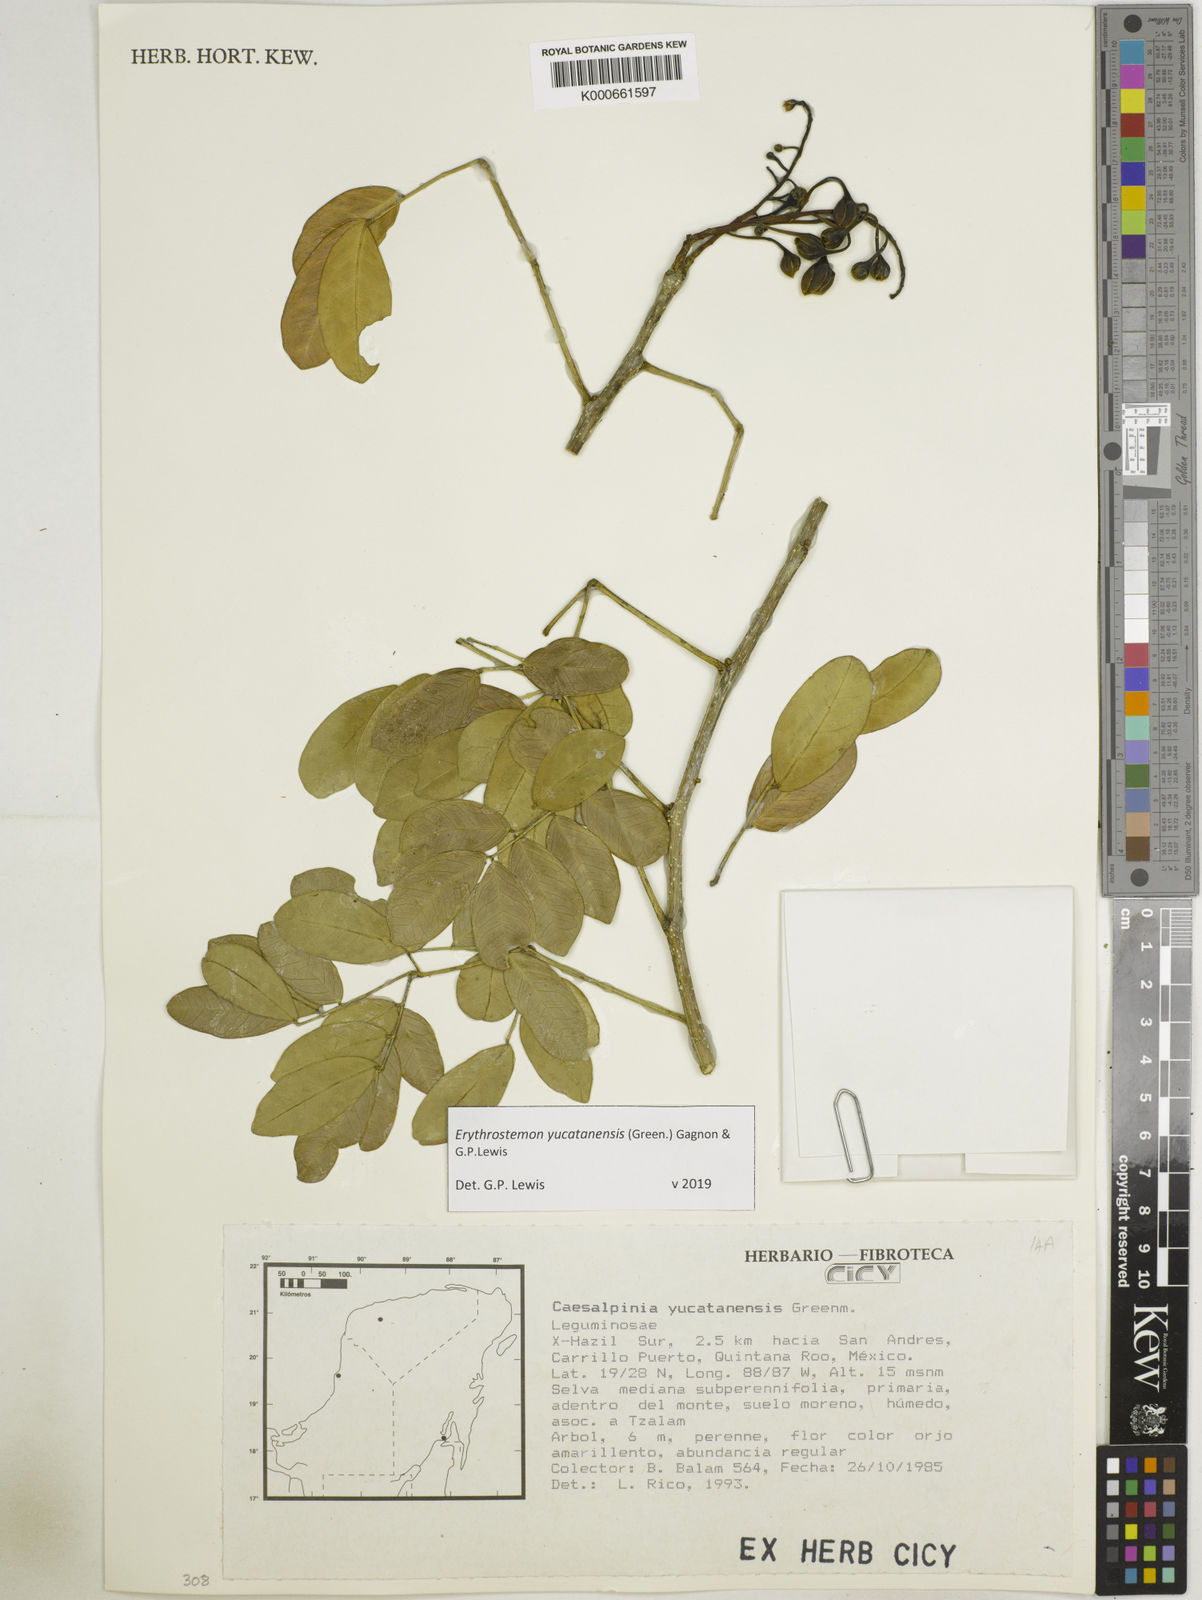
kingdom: Plantae
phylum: Tracheophyta
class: Magnoliopsida
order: Fabales
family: Fabaceae
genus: Caesalpinia
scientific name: Caesalpinia
